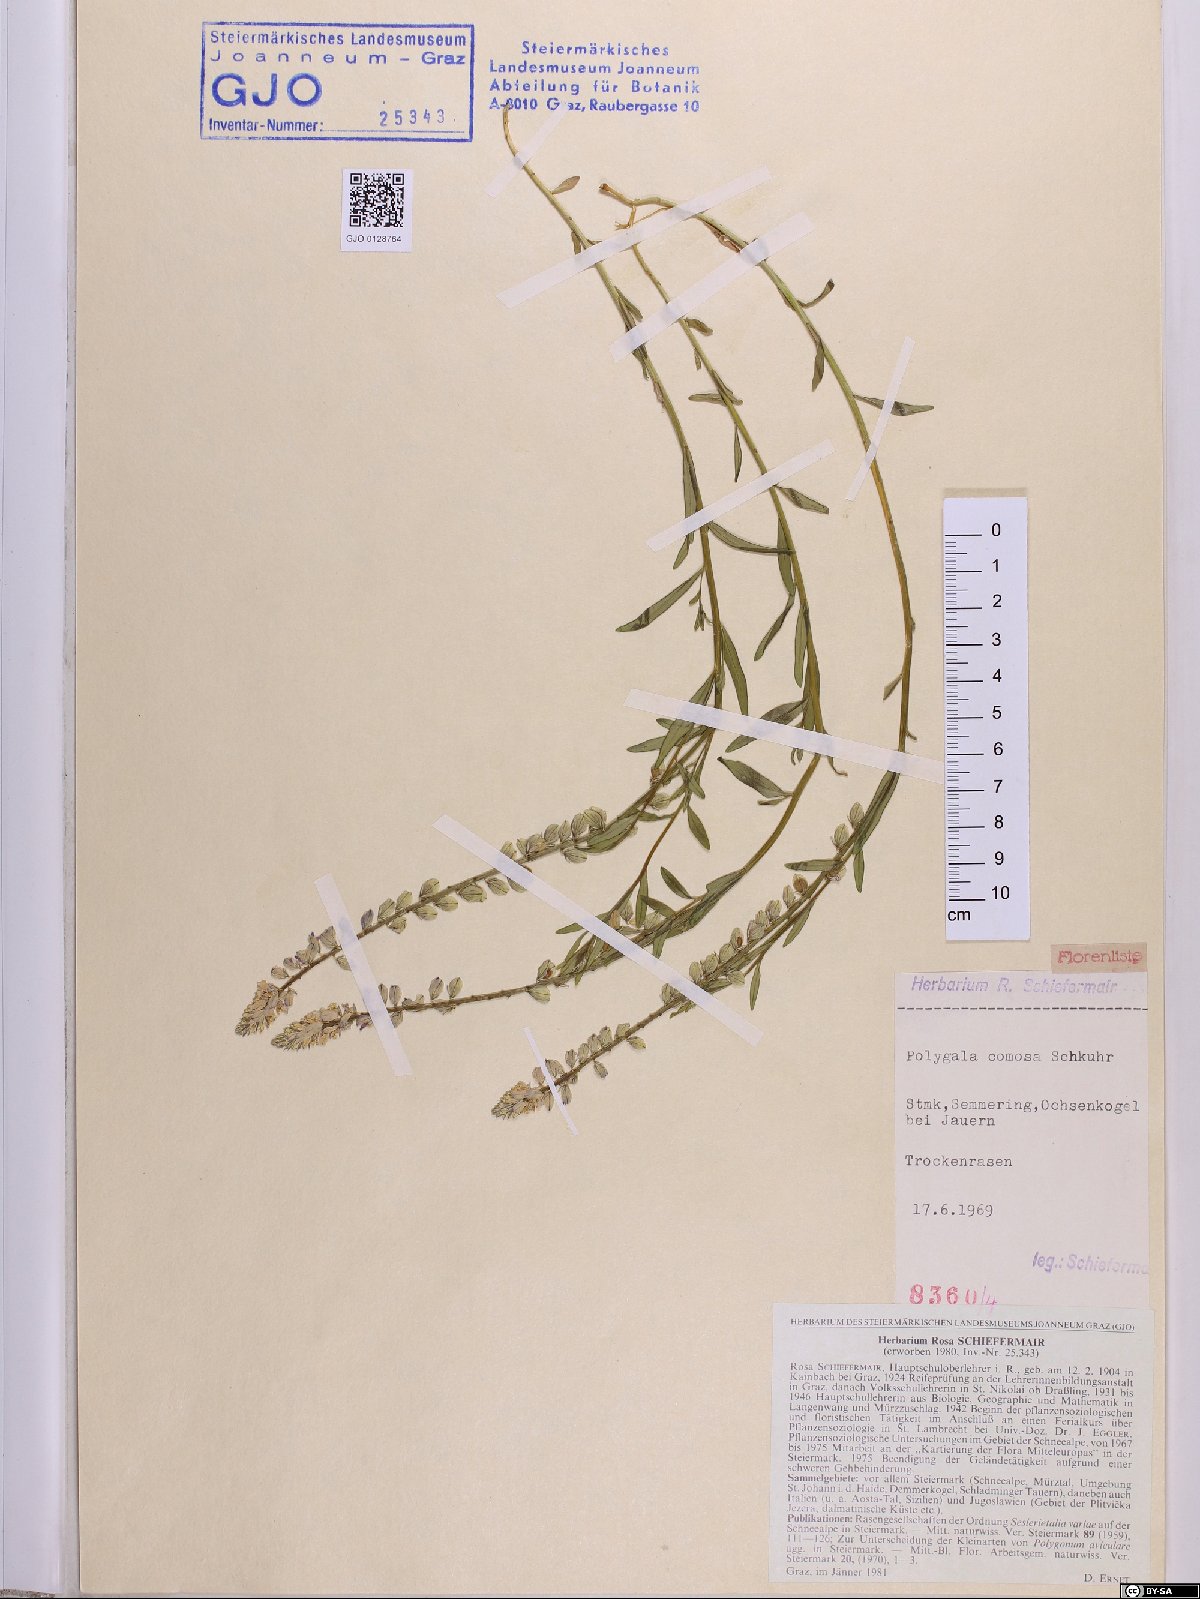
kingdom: Plantae
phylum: Tracheophyta
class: Magnoliopsida
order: Fabales
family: Polygalaceae
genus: Polygala
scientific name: Polygala comosa
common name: Tufted milkwort
